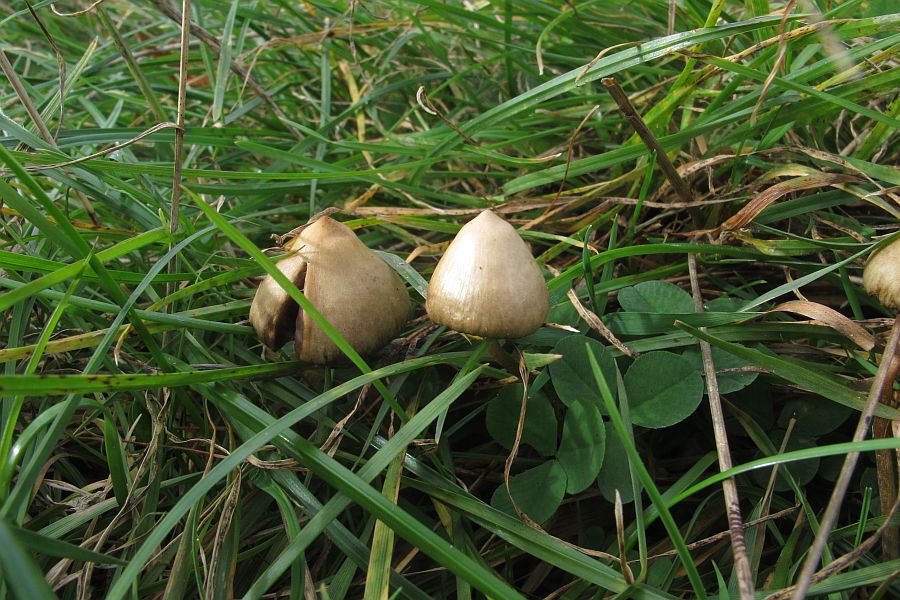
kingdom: Fungi
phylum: Basidiomycota
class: Agaricomycetes
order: Agaricales
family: Hymenogastraceae
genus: Psilocybe
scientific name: Psilocybe semilanceata
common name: spids nøgenhat
